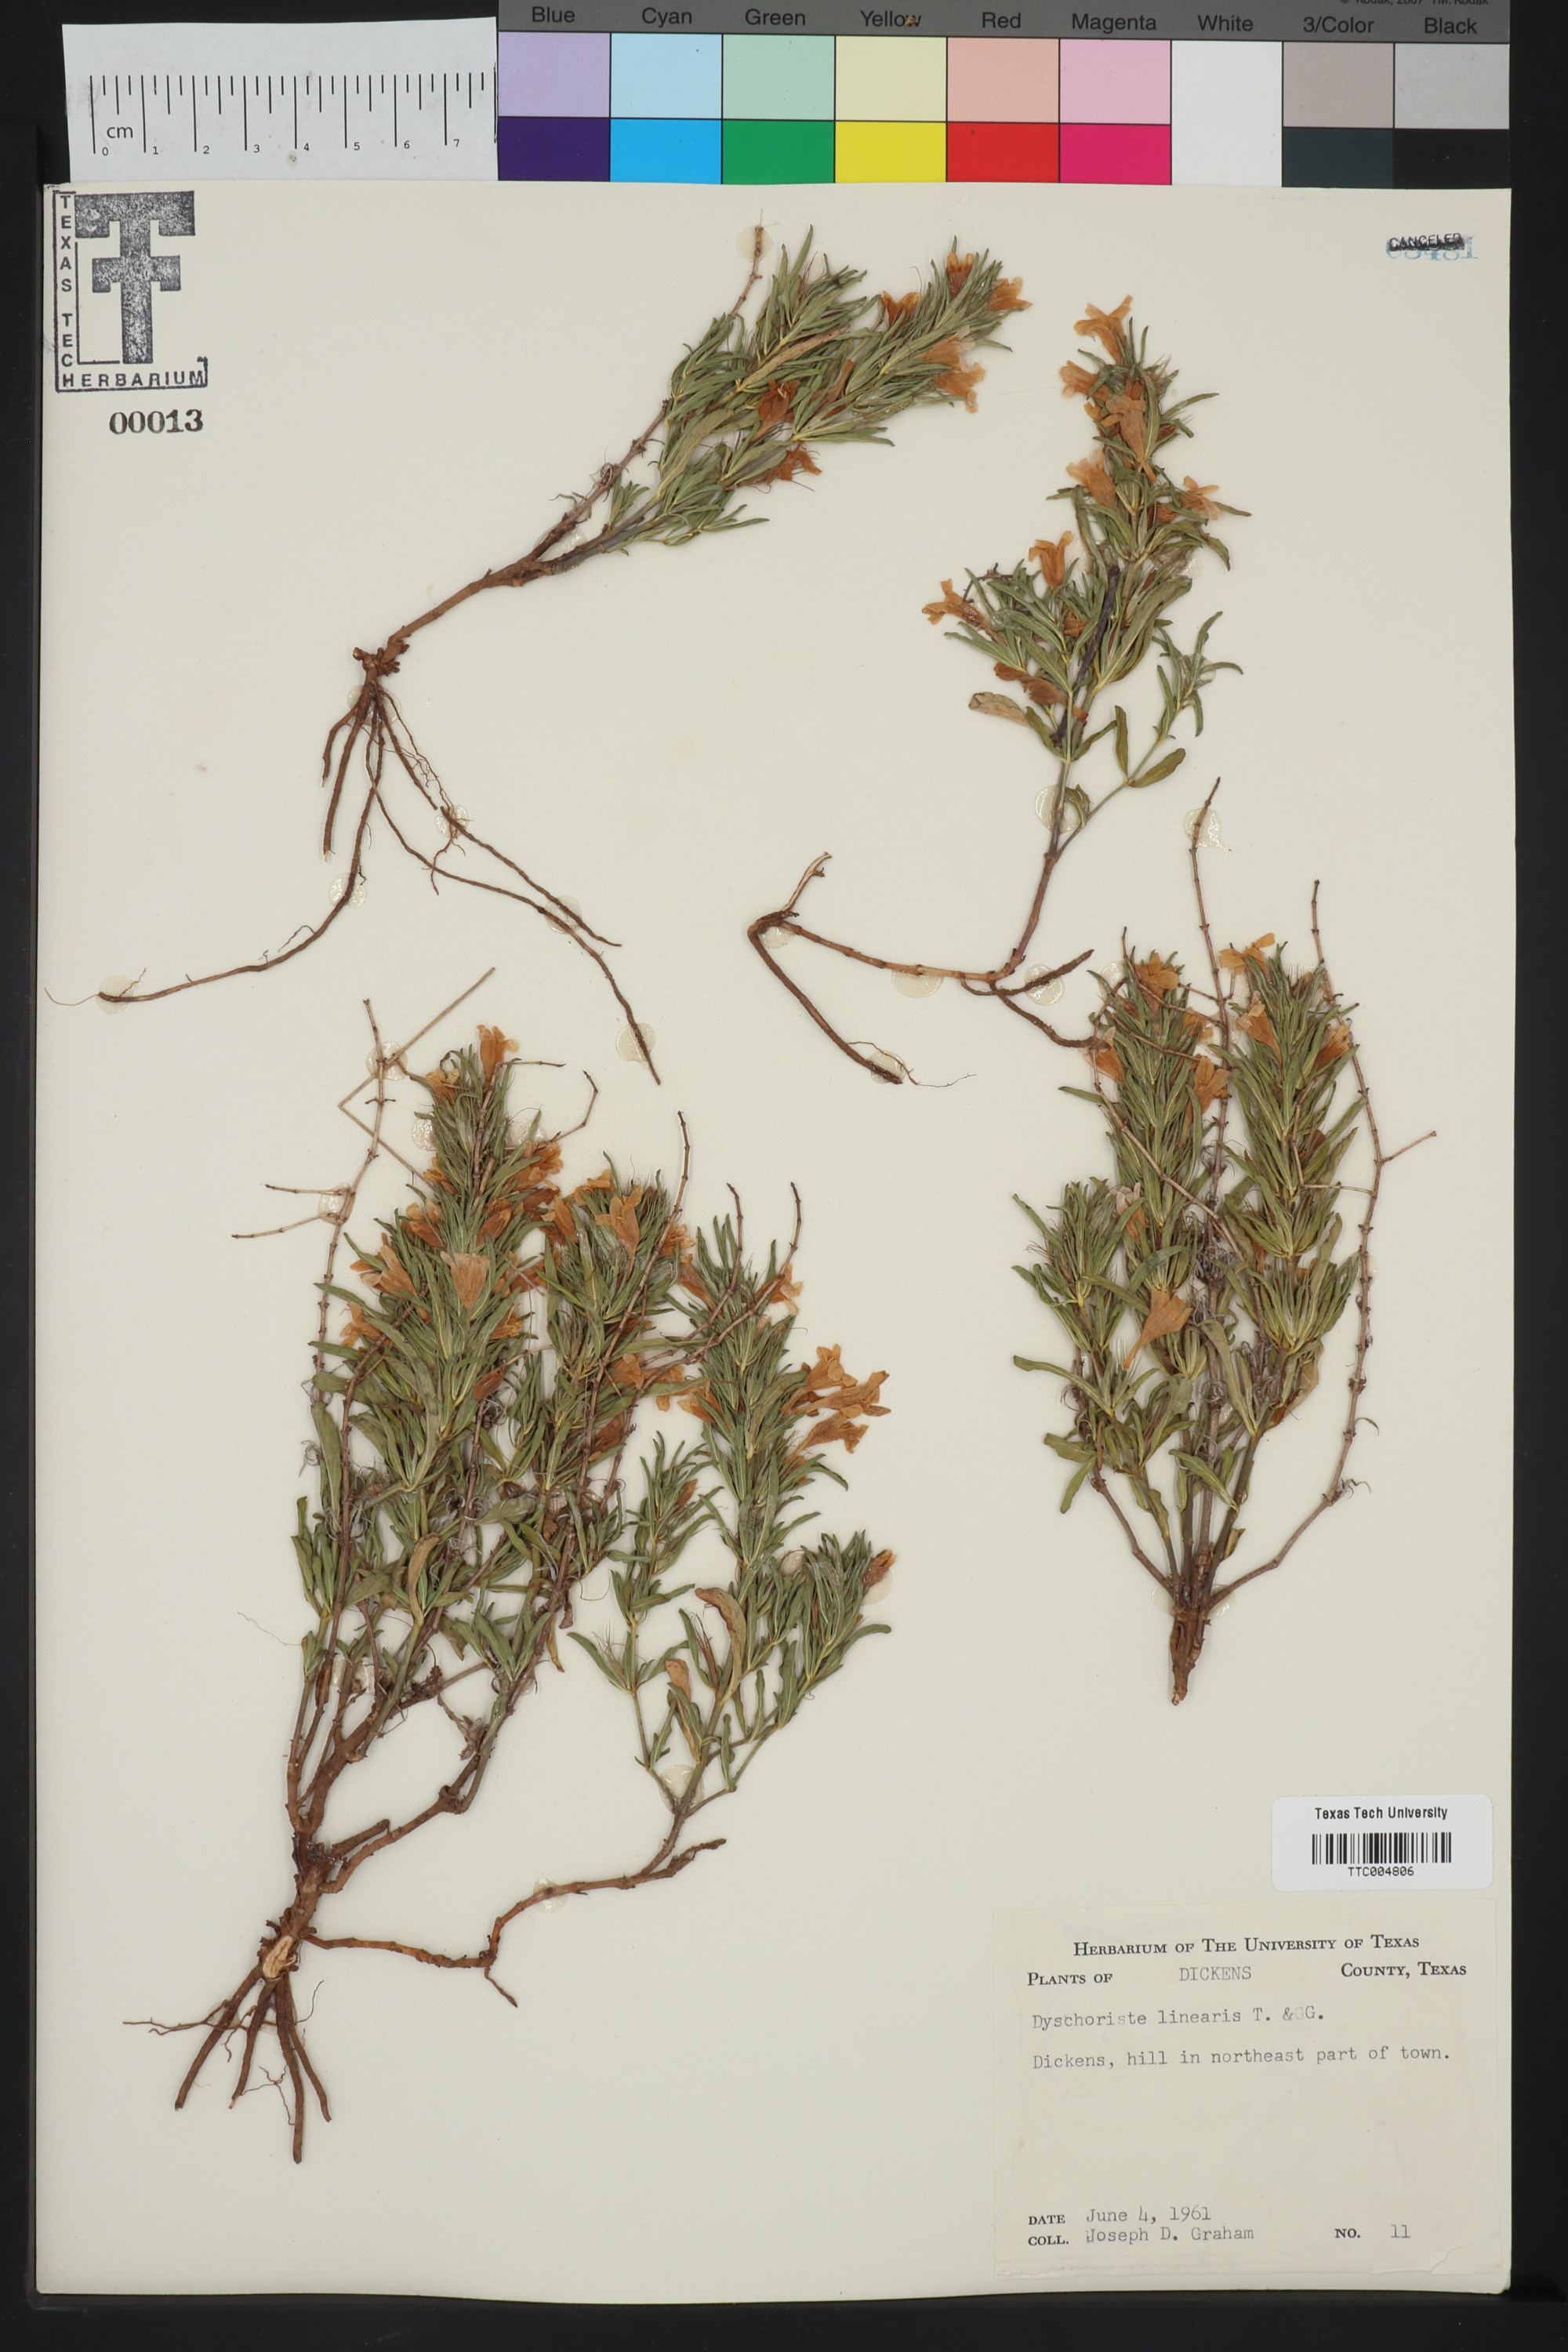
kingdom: Plantae
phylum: Tracheophyta
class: Magnoliopsida
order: Lamiales
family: Acanthaceae
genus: Dyschoriste
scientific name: Dyschoriste linearis
